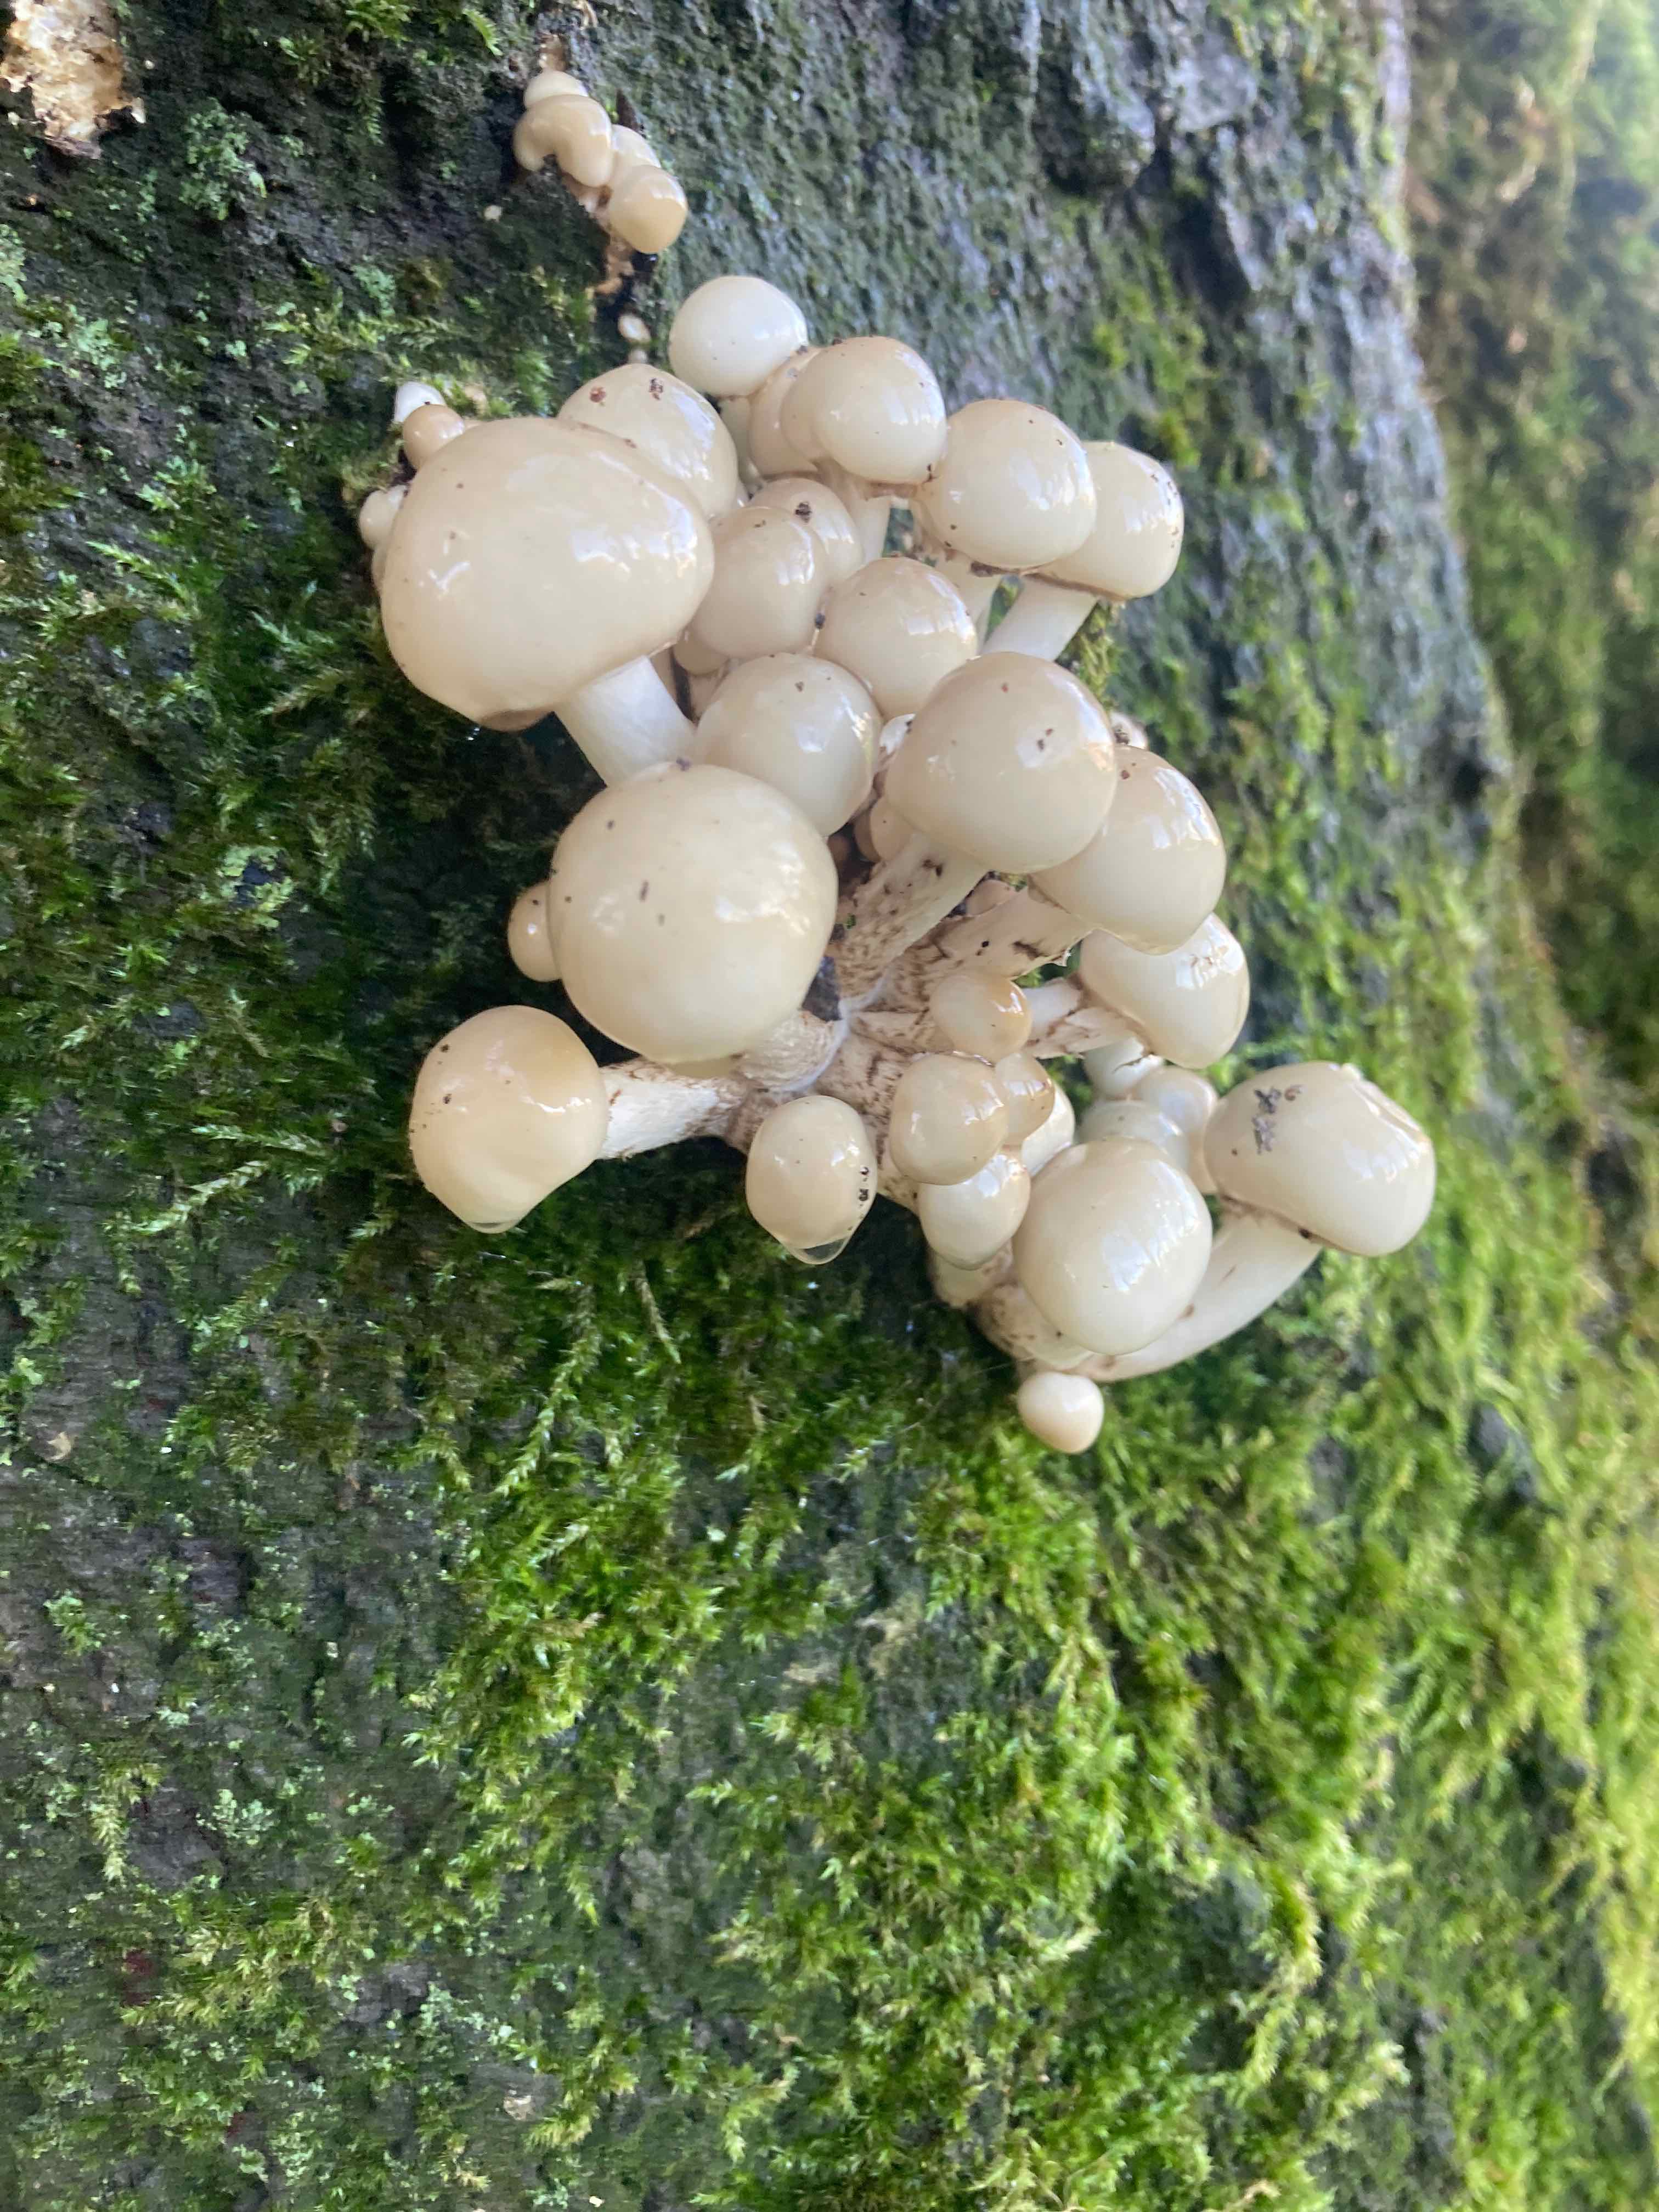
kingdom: Fungi
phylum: Basidiomycota
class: Agaricomycetes
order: Agaricales
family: Physalacriaceae
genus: Mucidula
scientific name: Mucidula mucida
